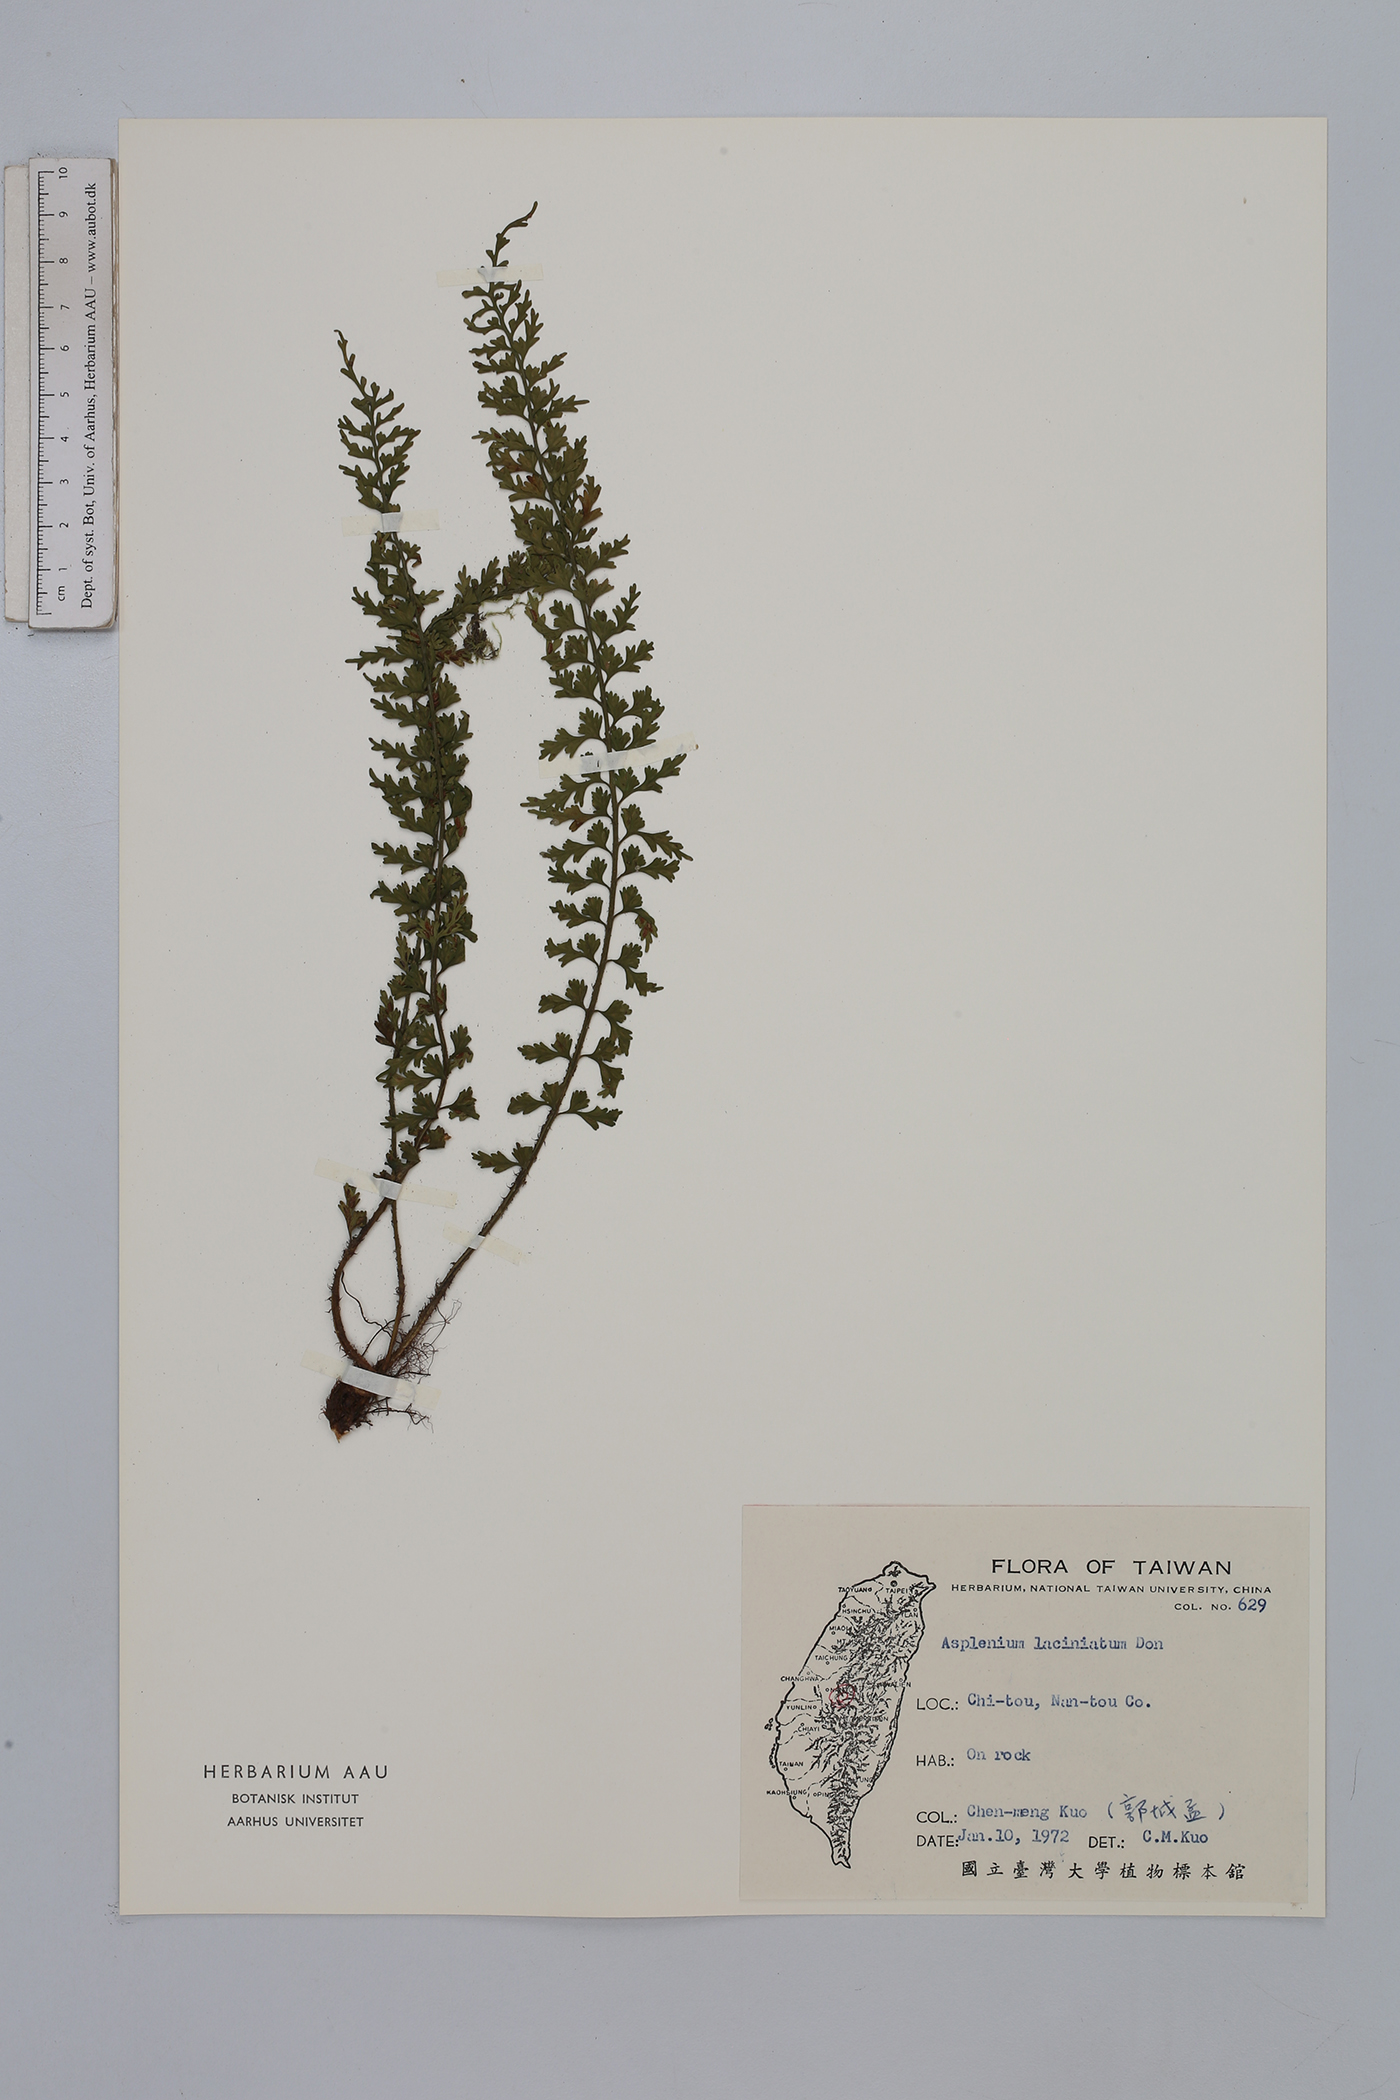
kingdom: Plantae
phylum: Tracheophyta
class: Polypodiopsida
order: Polypodiales
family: Aspleniaceae
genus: Asplenium
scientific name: Asplenium laciniatum
